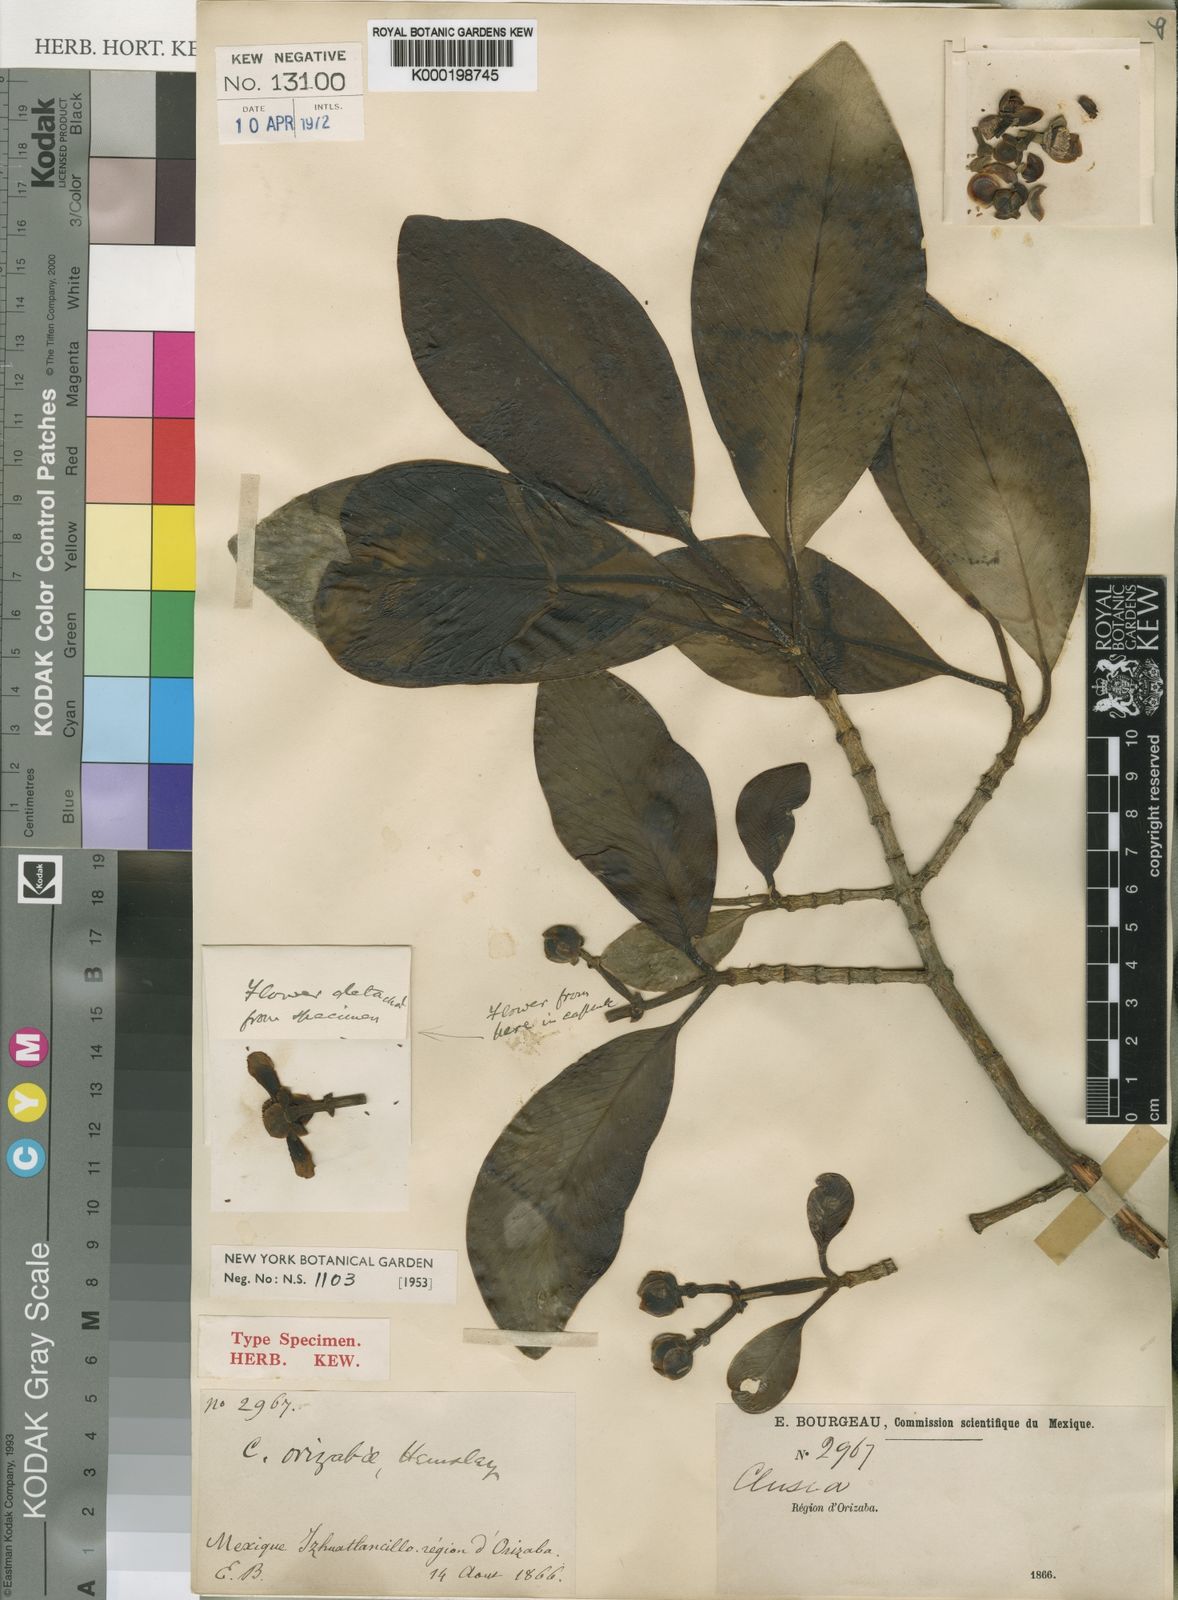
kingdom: Plantae
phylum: Tracheophyta
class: Magnoliopsida
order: Malpighiales
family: Clusiaceae
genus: Clusia
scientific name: Clusia guatemalensis
